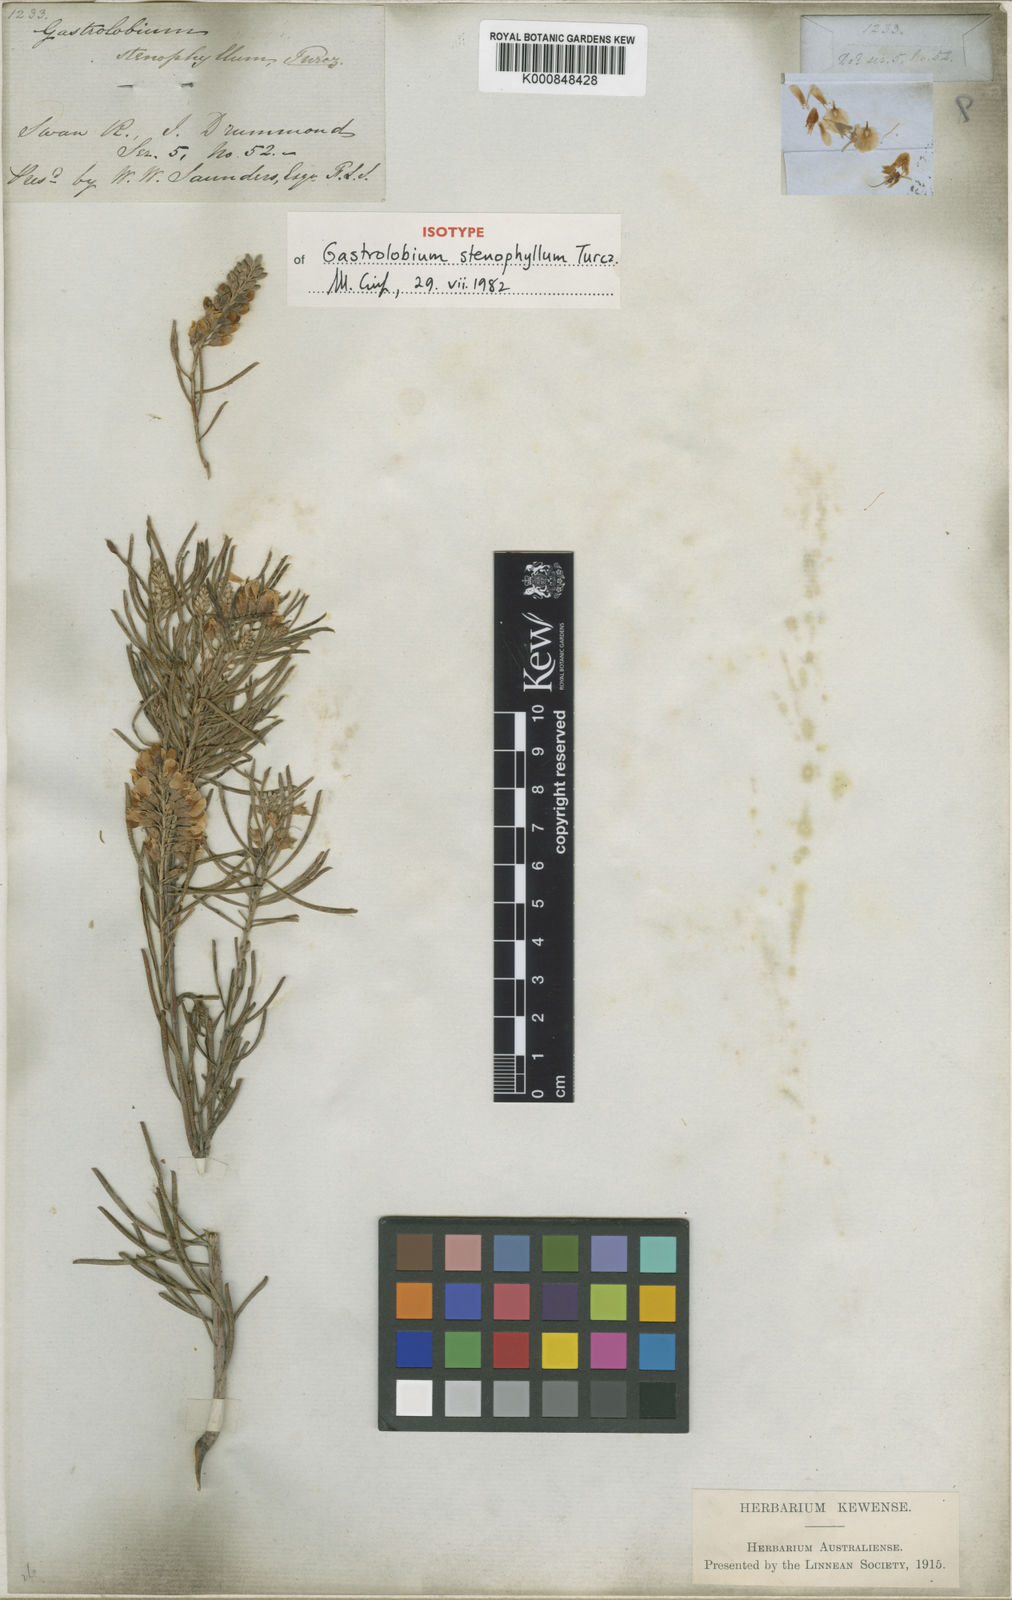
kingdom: Plantae
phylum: Tracheophyta
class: Magnoliopsida
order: Fabales
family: Fabaceae
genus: Gastrolobium
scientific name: Gastrolobium stenophyllum
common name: Narrow-leaf poison
